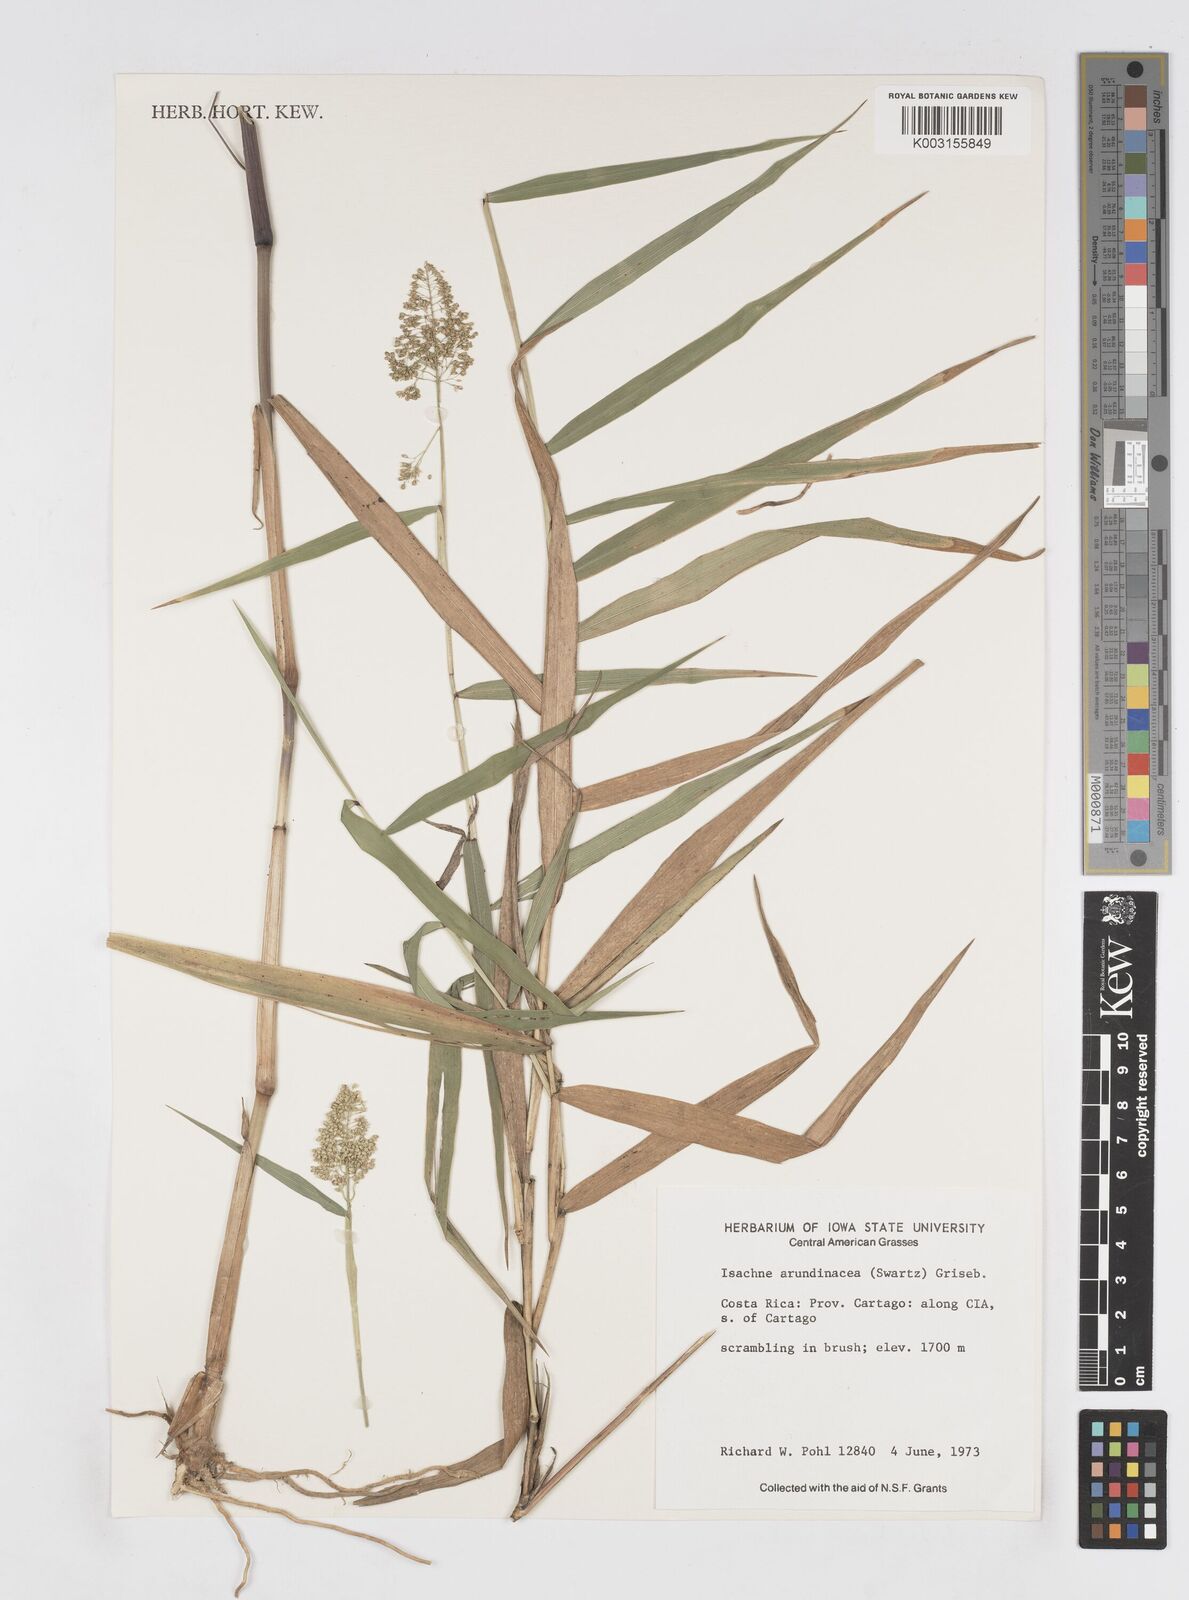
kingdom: Plantae
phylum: Tracheophyta
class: Liliopsida
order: Poales
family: Poaceae
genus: Isachne
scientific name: Isachne arundinacea
